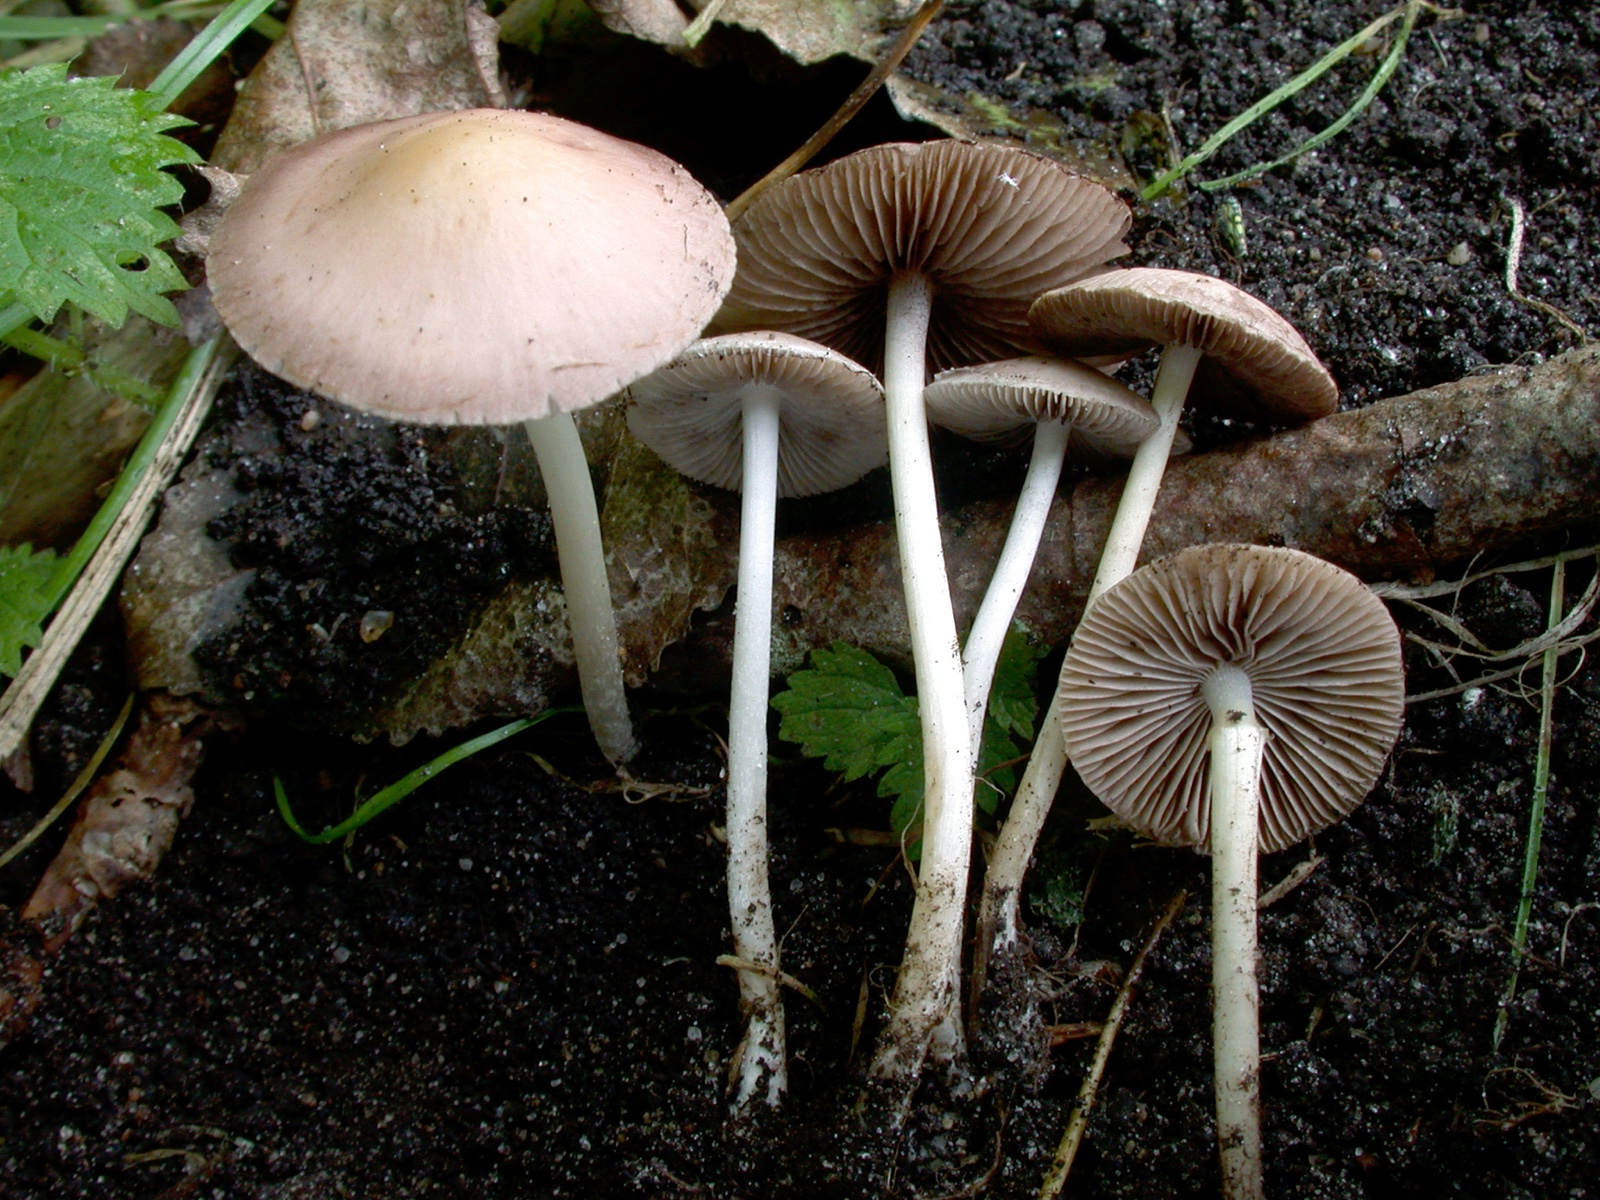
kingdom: Fungi
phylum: Basidiomycota
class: Agaricomycetes
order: Agaricales
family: Psathyrellaceae
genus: Psathyrella
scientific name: Psathyrella fatua
